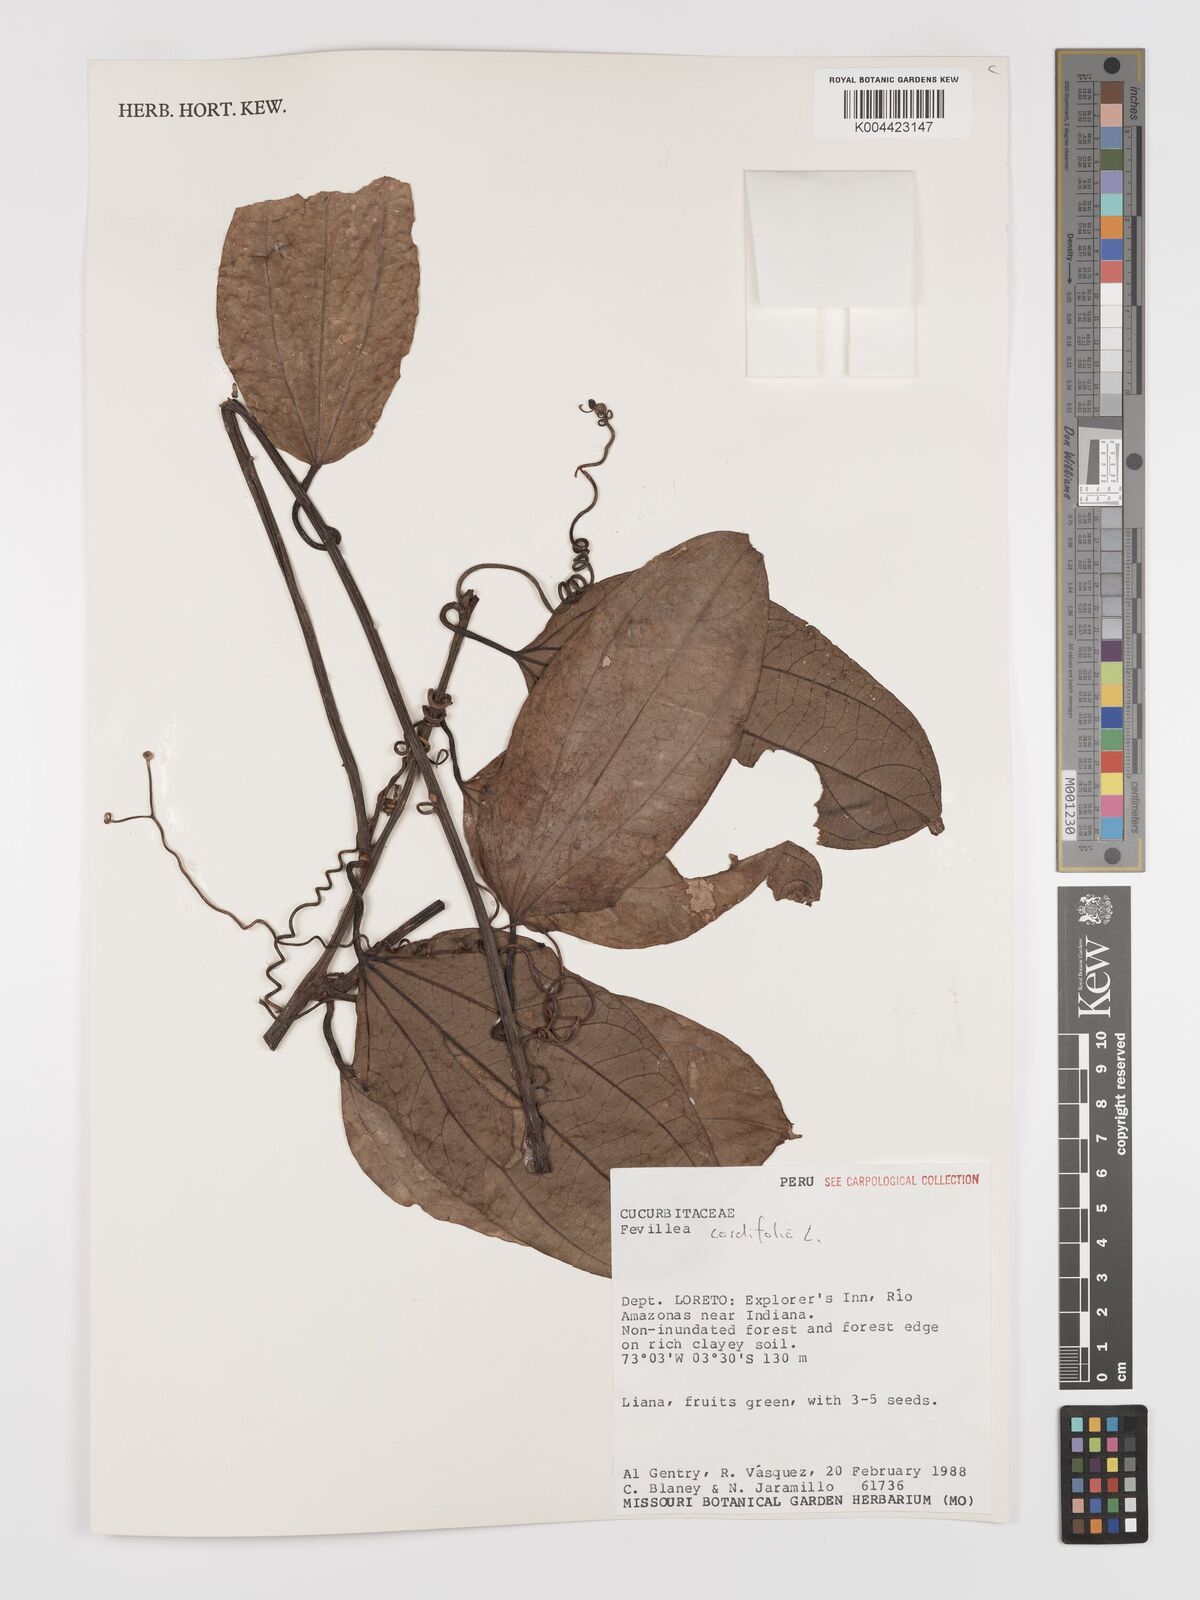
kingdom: Plantae
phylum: Tracheophyta
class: Magnoliopsida
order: Cucurbitales
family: Cucurbitaceae
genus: Fevillea
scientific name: Fevillea
